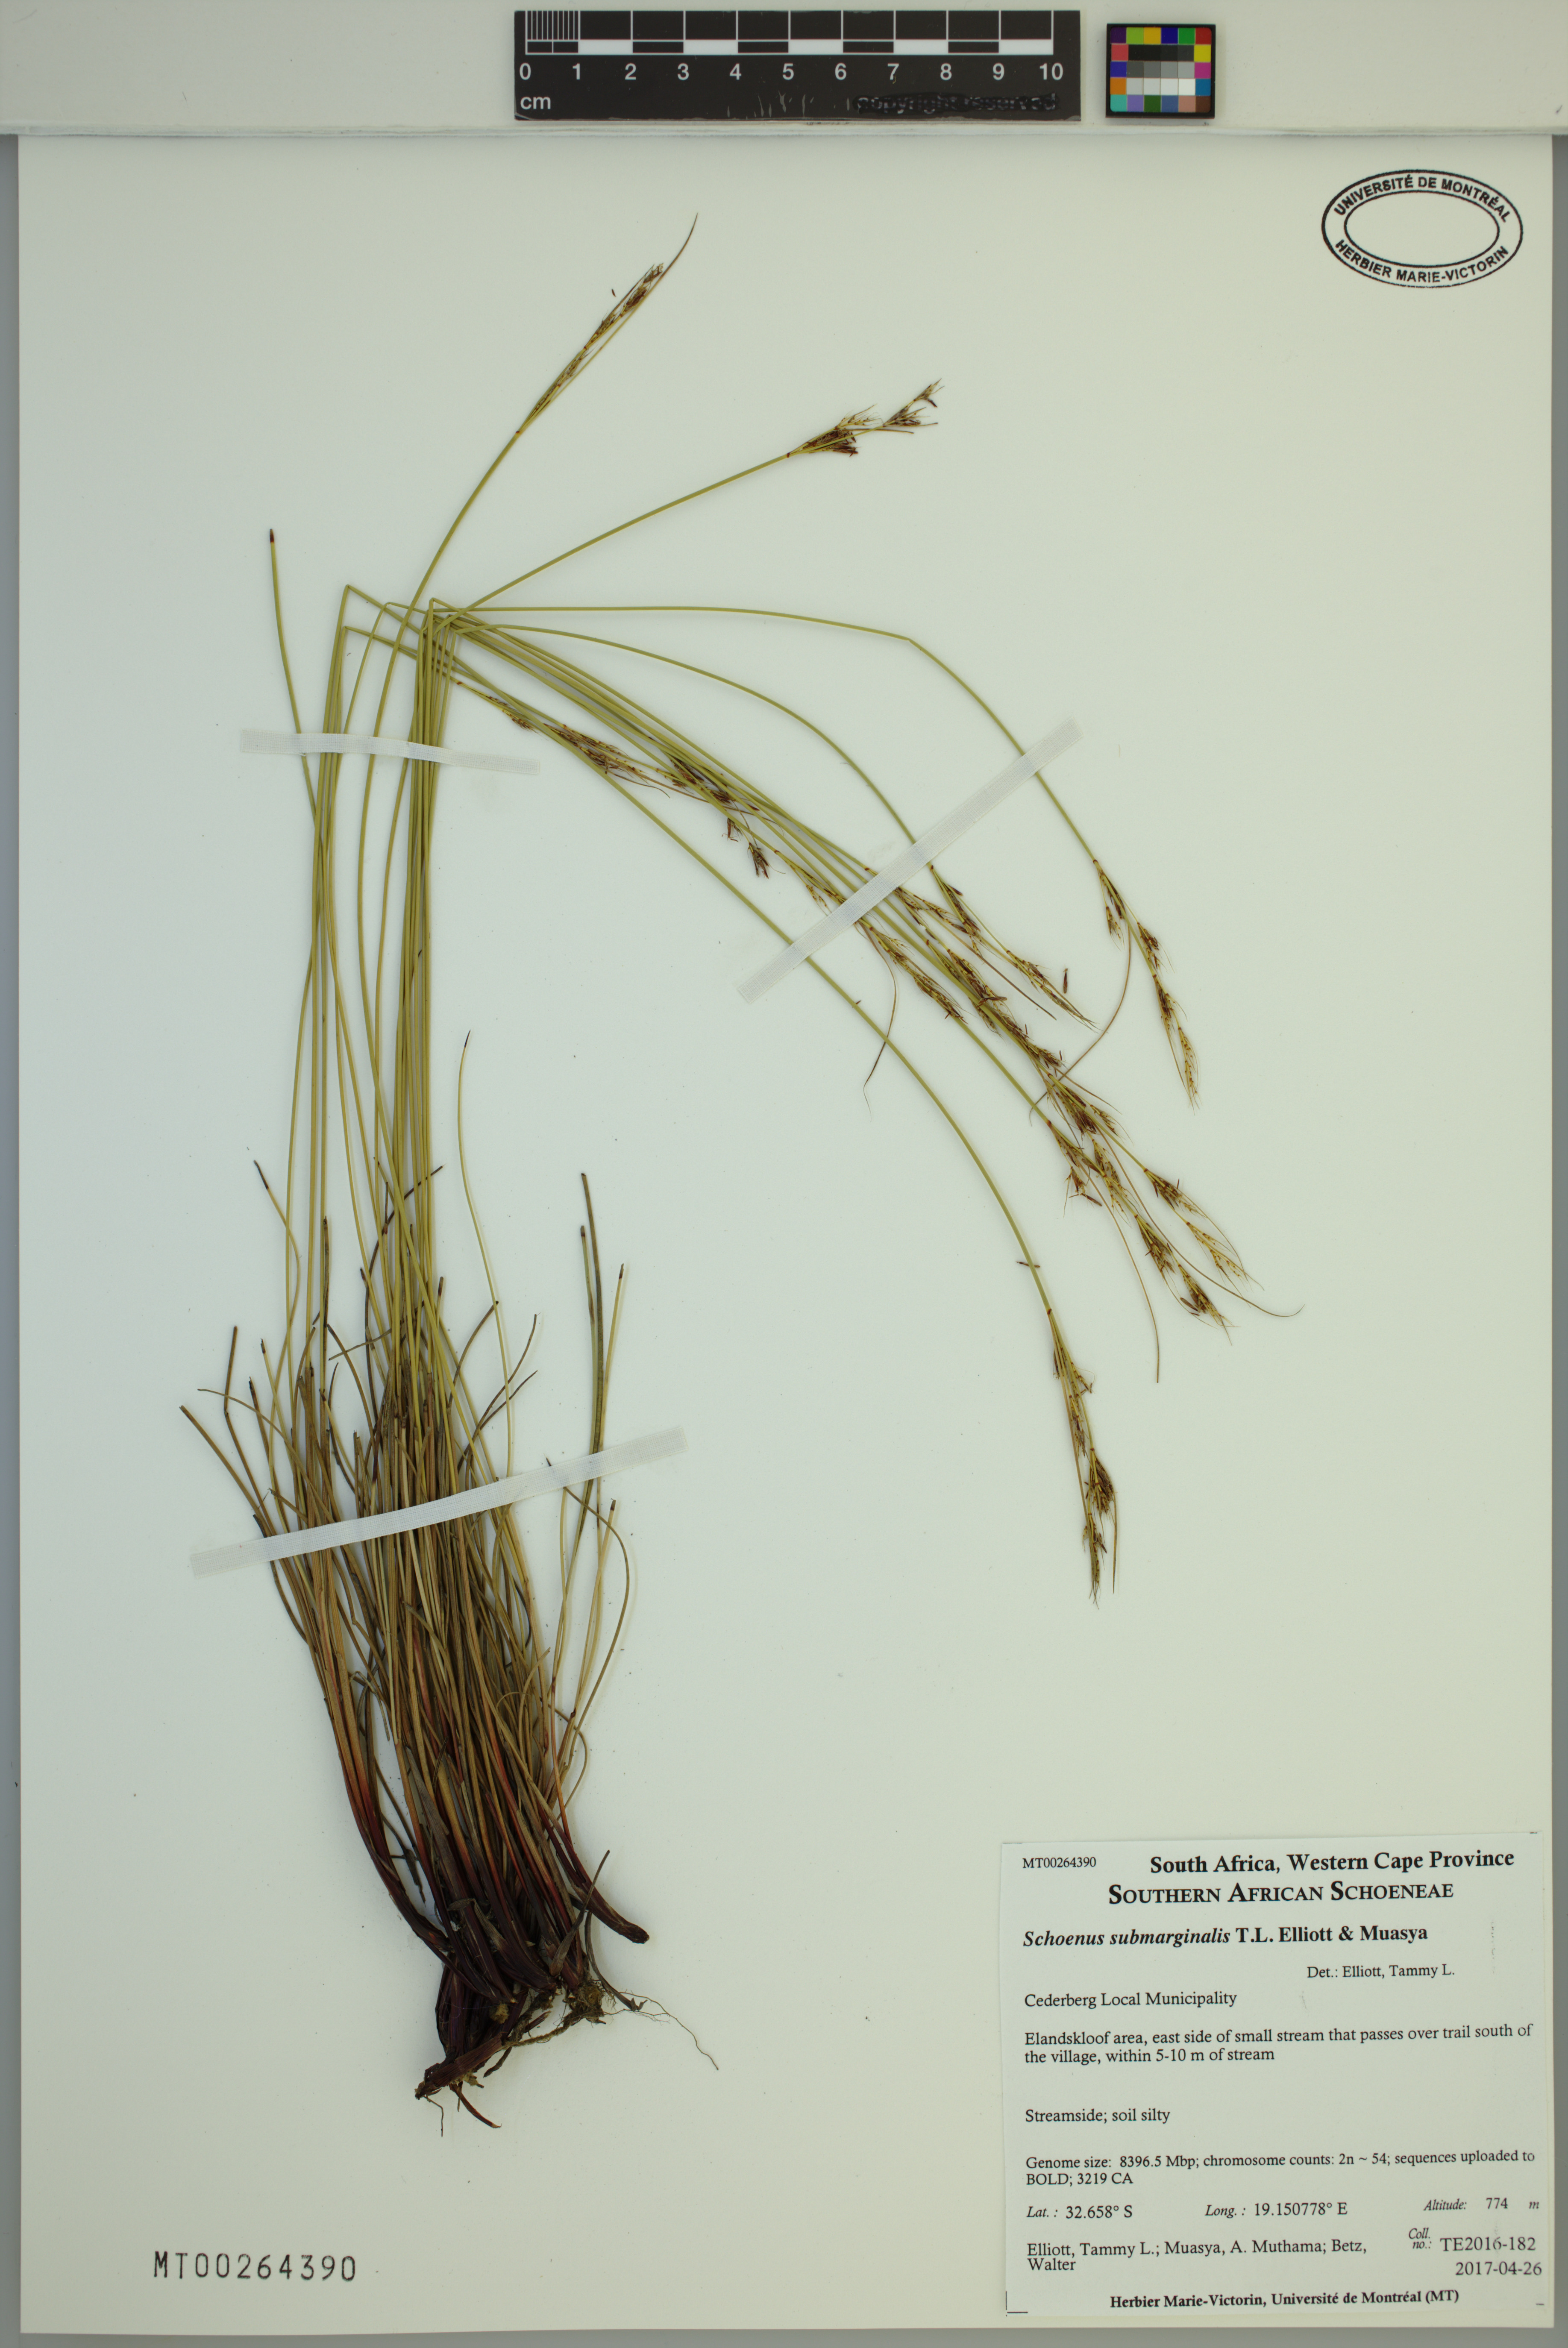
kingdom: Plantae
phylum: Tracheophyta
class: Liliopsida
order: Poales
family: Cyperaceae
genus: Schoenus
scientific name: Schoenus submarginalis
